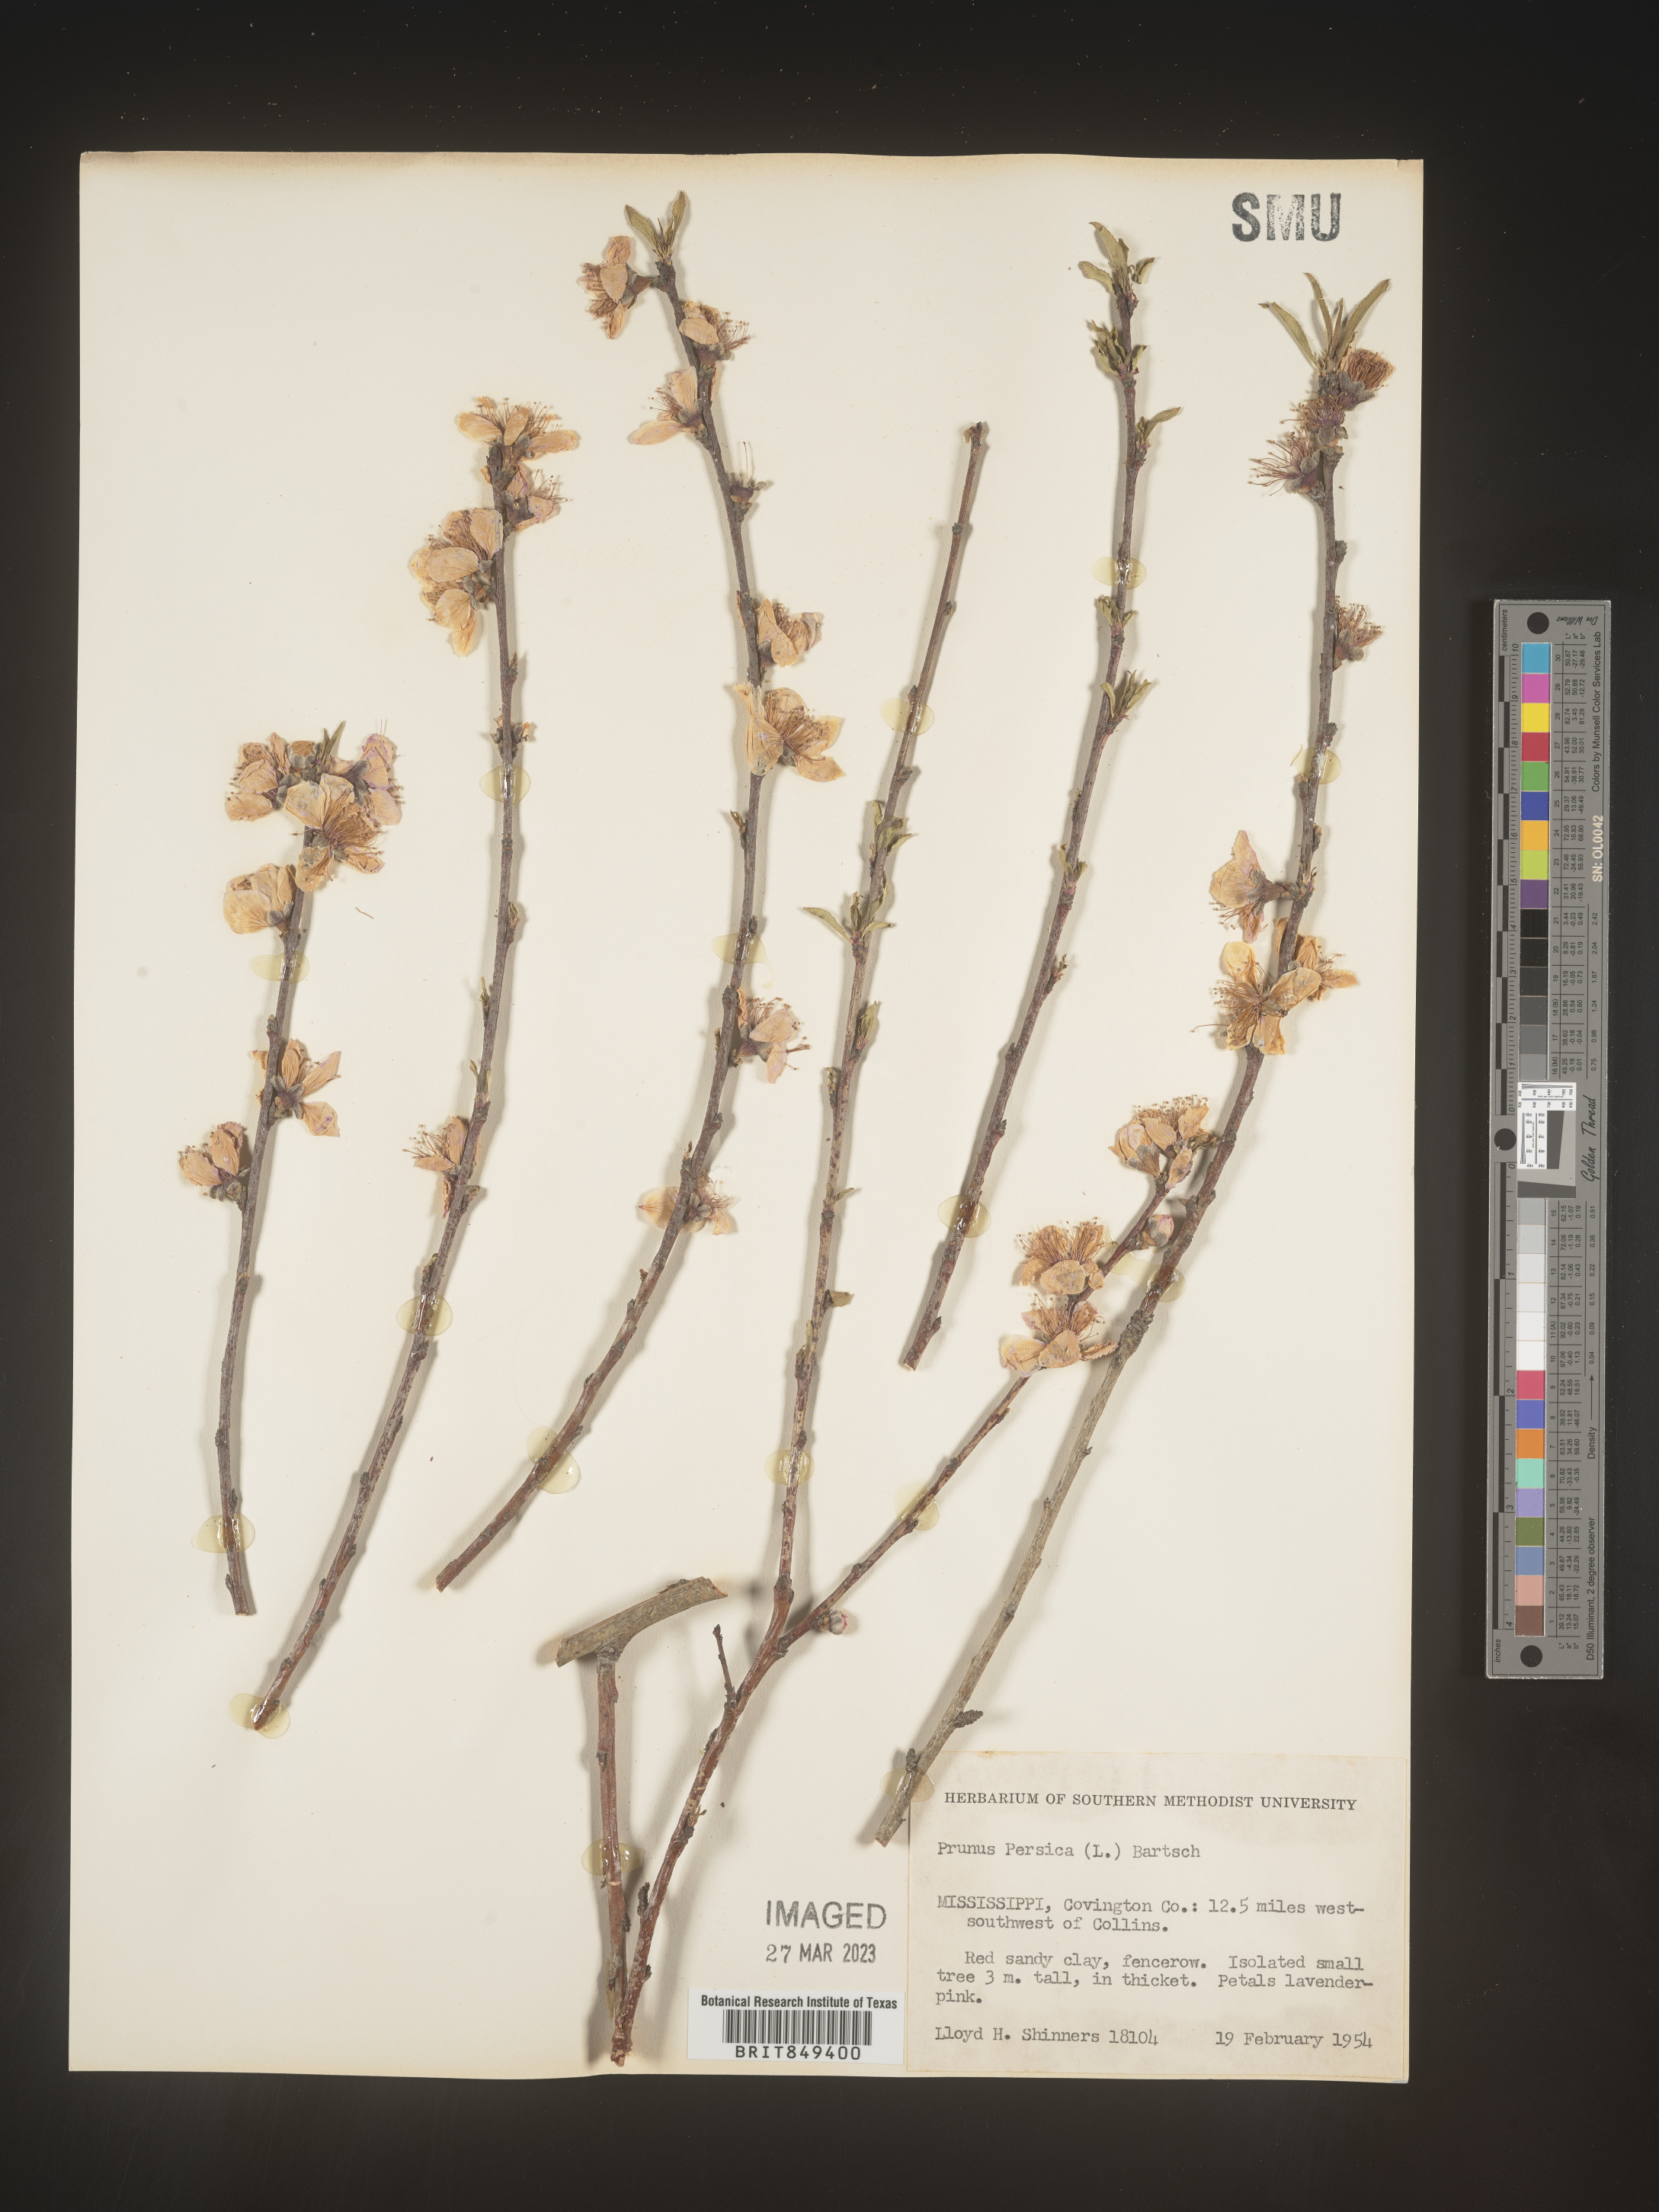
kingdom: Plantae
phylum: Tracheophyta
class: Magnoliopsida
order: Rosales
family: Rosaceae
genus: Prunus
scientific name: Prunus persica
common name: Peach
